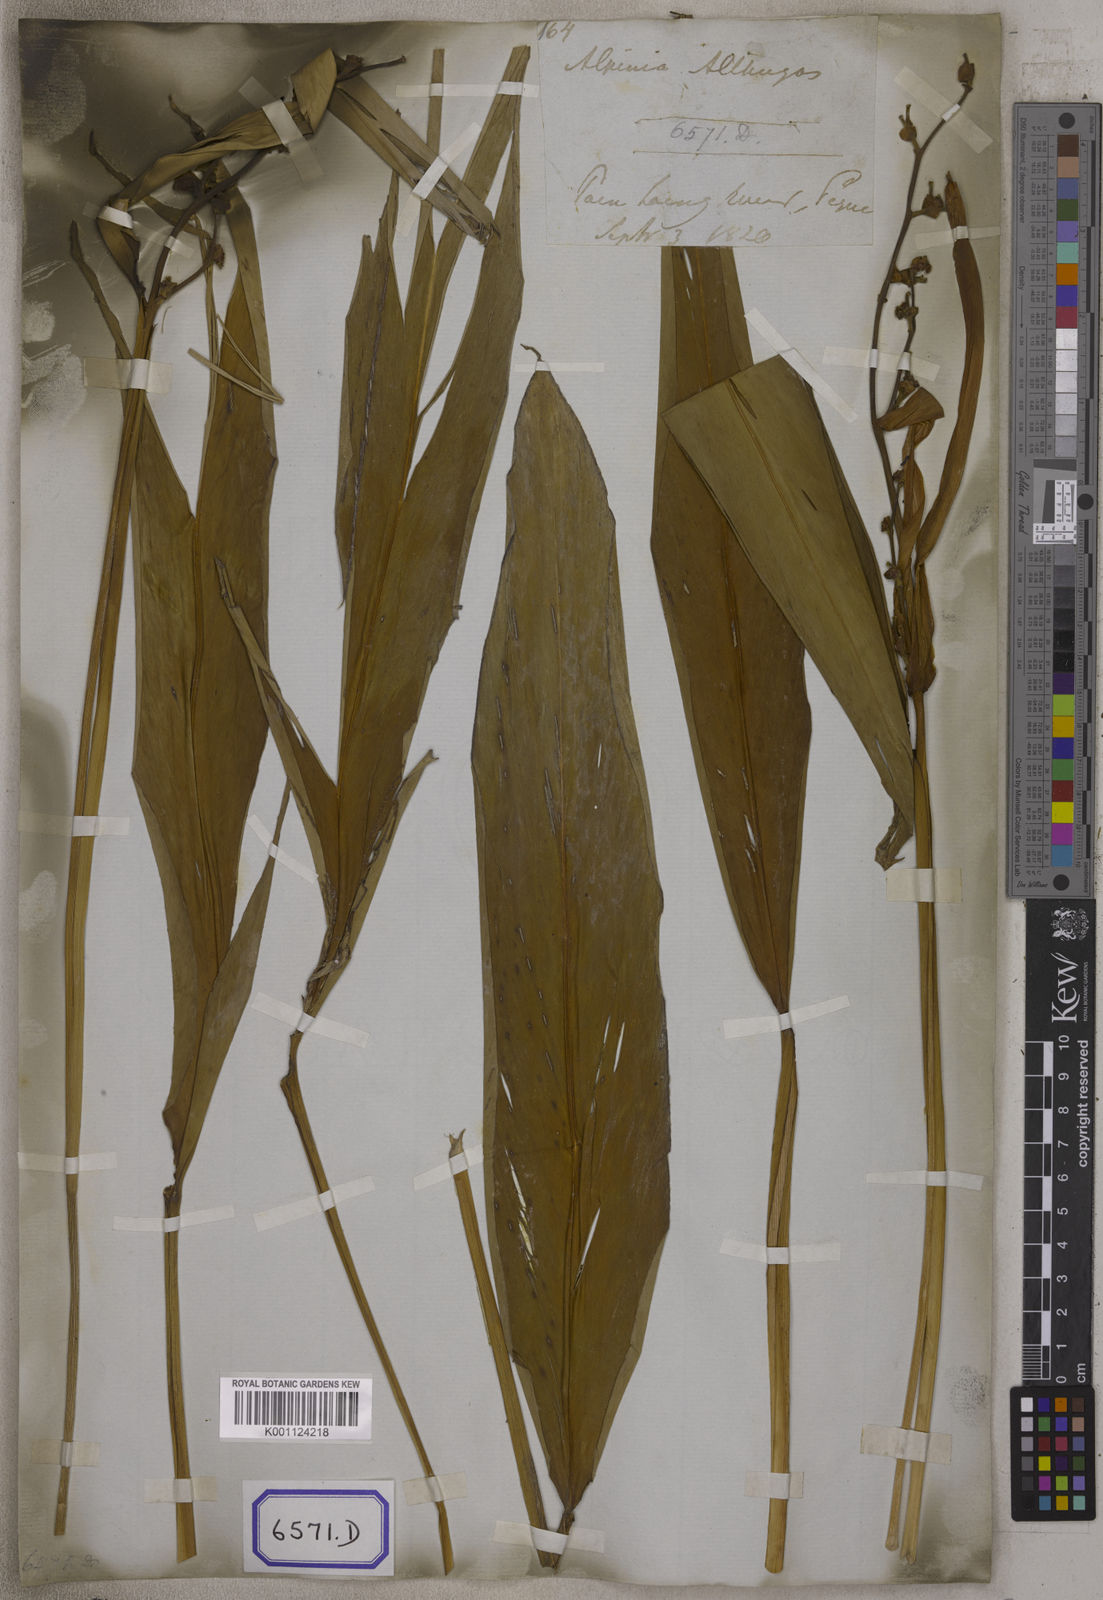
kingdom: Plantae
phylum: Tracheophyta
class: Liliopsida
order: Zingiberales
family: Zingiberaceae
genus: Alpinia
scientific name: Alpinia nigra
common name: Black fruited galanga
